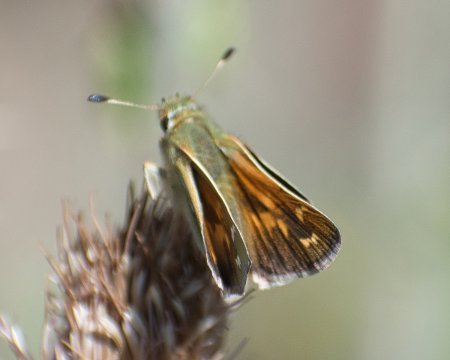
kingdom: Animalia
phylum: Arthropoda
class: Insecta
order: Lepidoptera
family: Hesperiidae
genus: Hesperia
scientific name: Hesperia comma
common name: Common Branded Skipper
